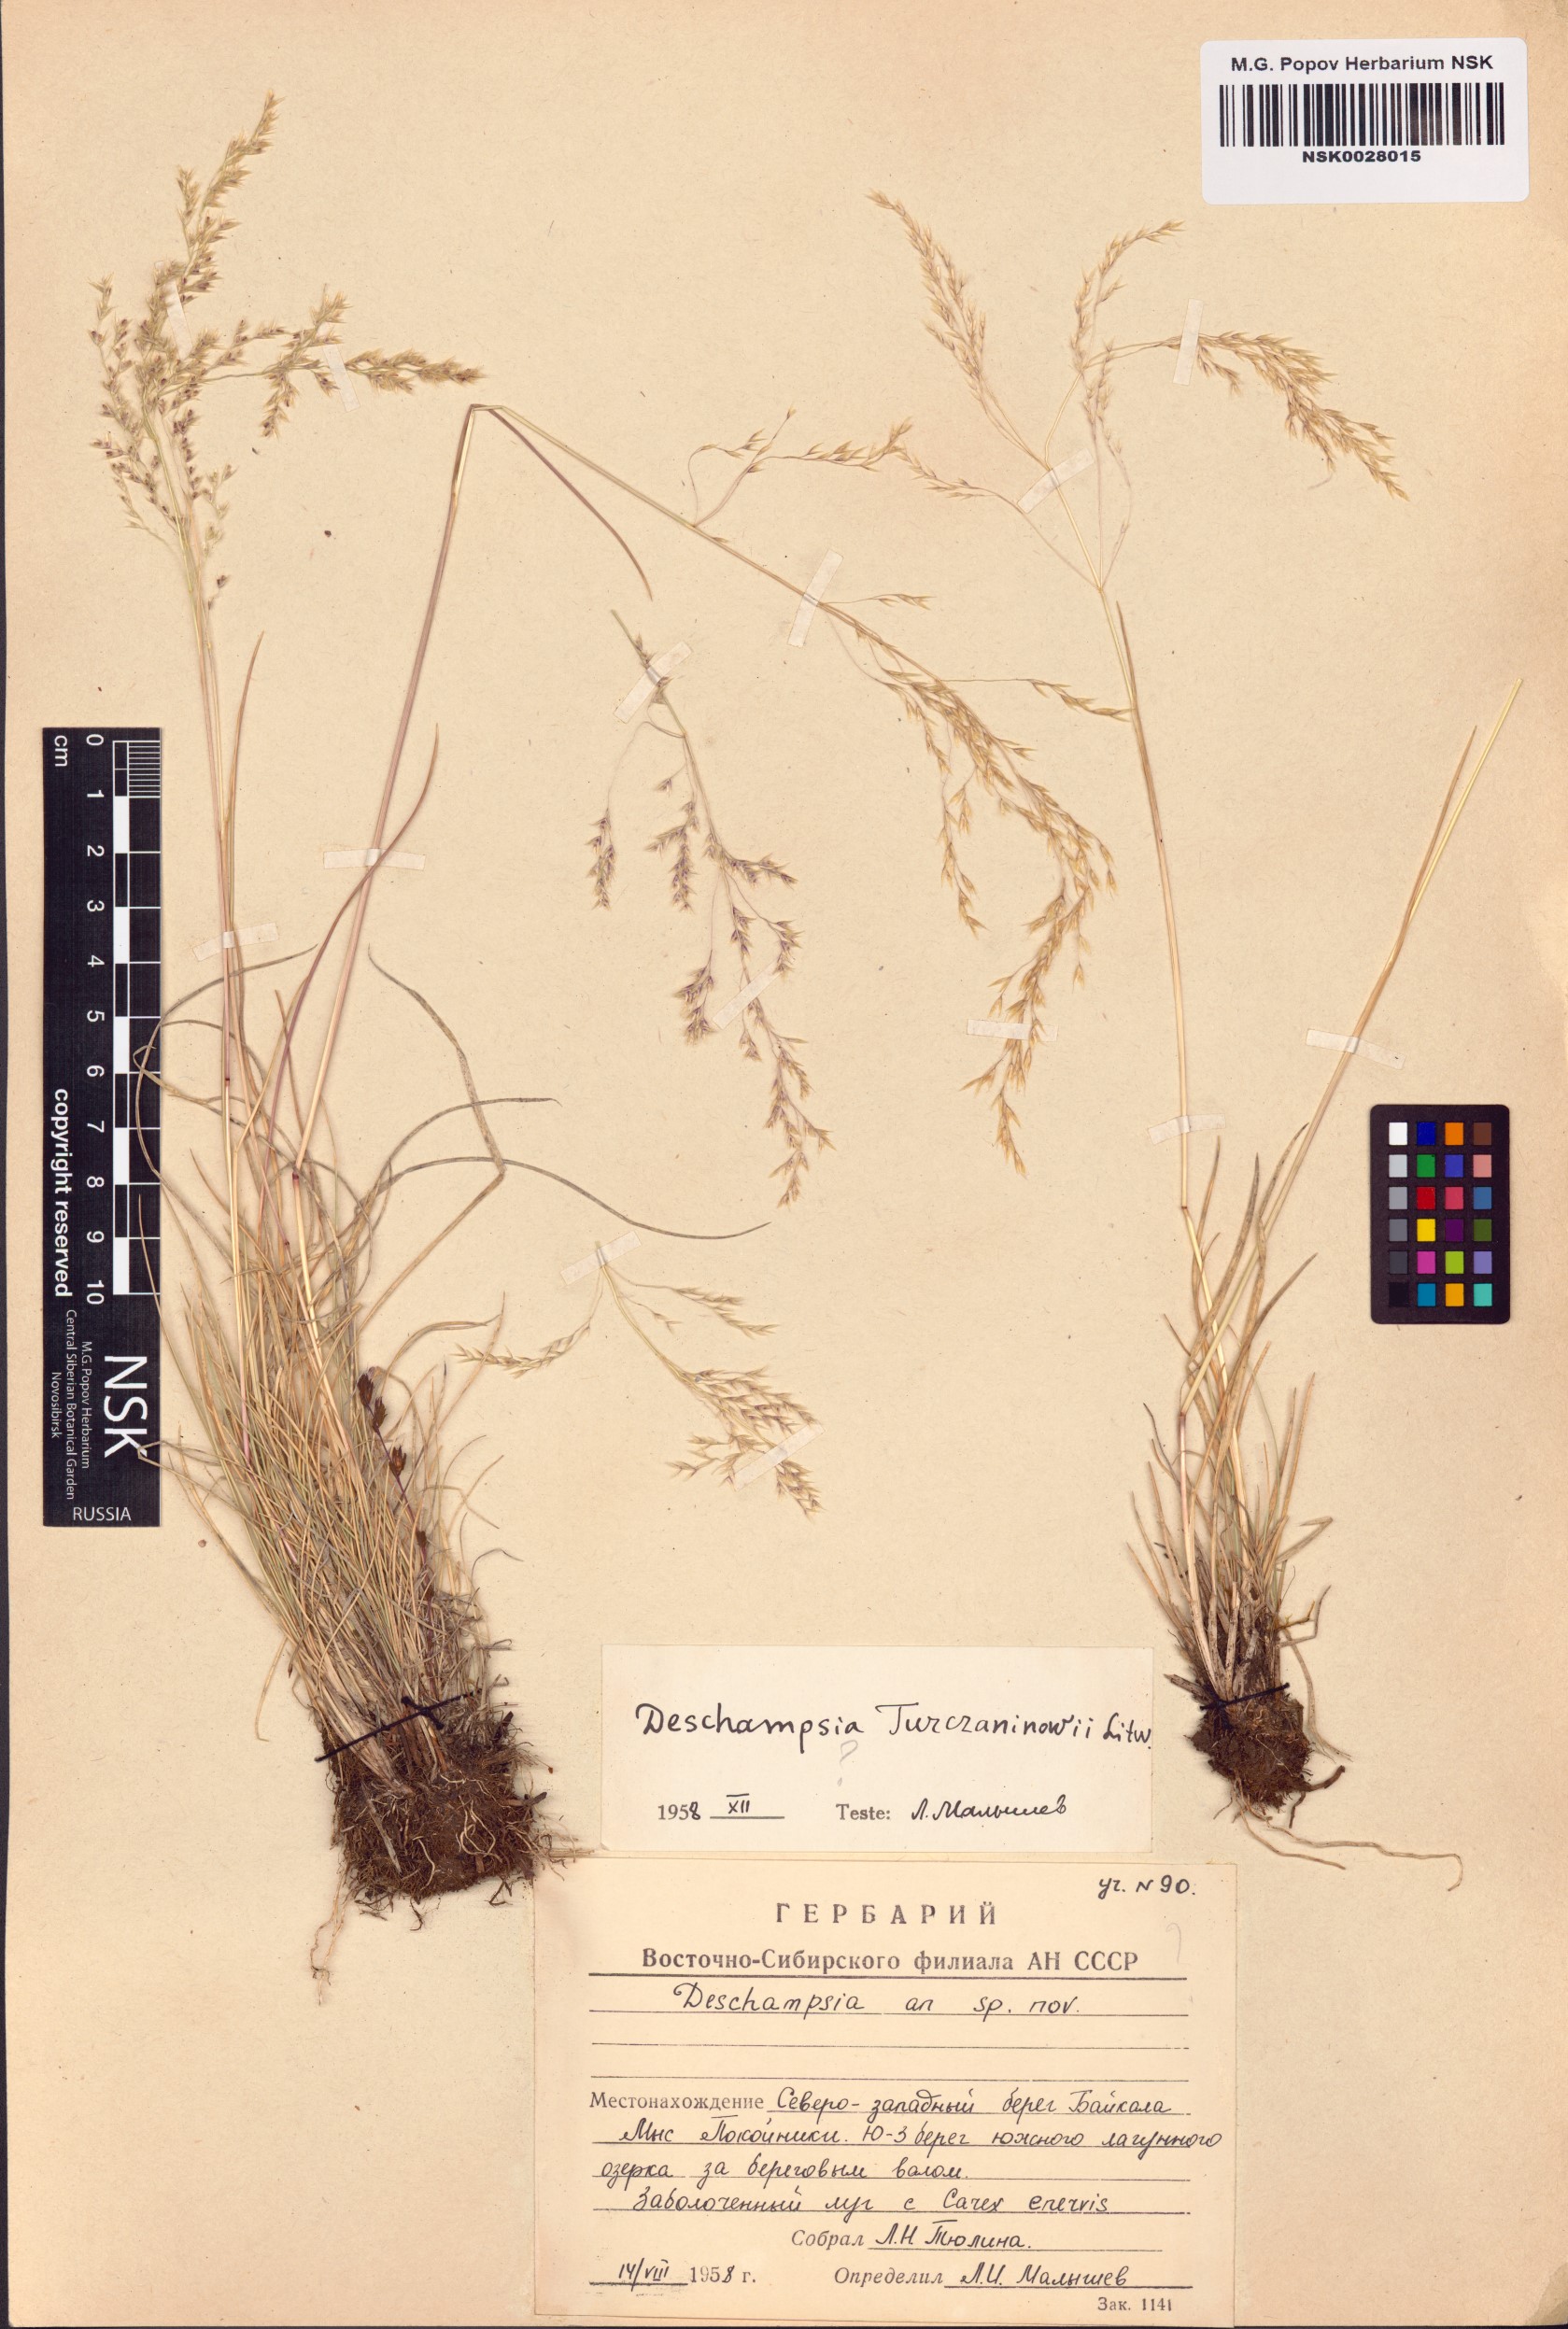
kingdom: Plantae
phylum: Tracheophyta
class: Liliopsida
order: Poales
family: Poaceae
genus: Deschampsia
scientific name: Deschampsia cespitosa
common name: Tufted hair-grass
